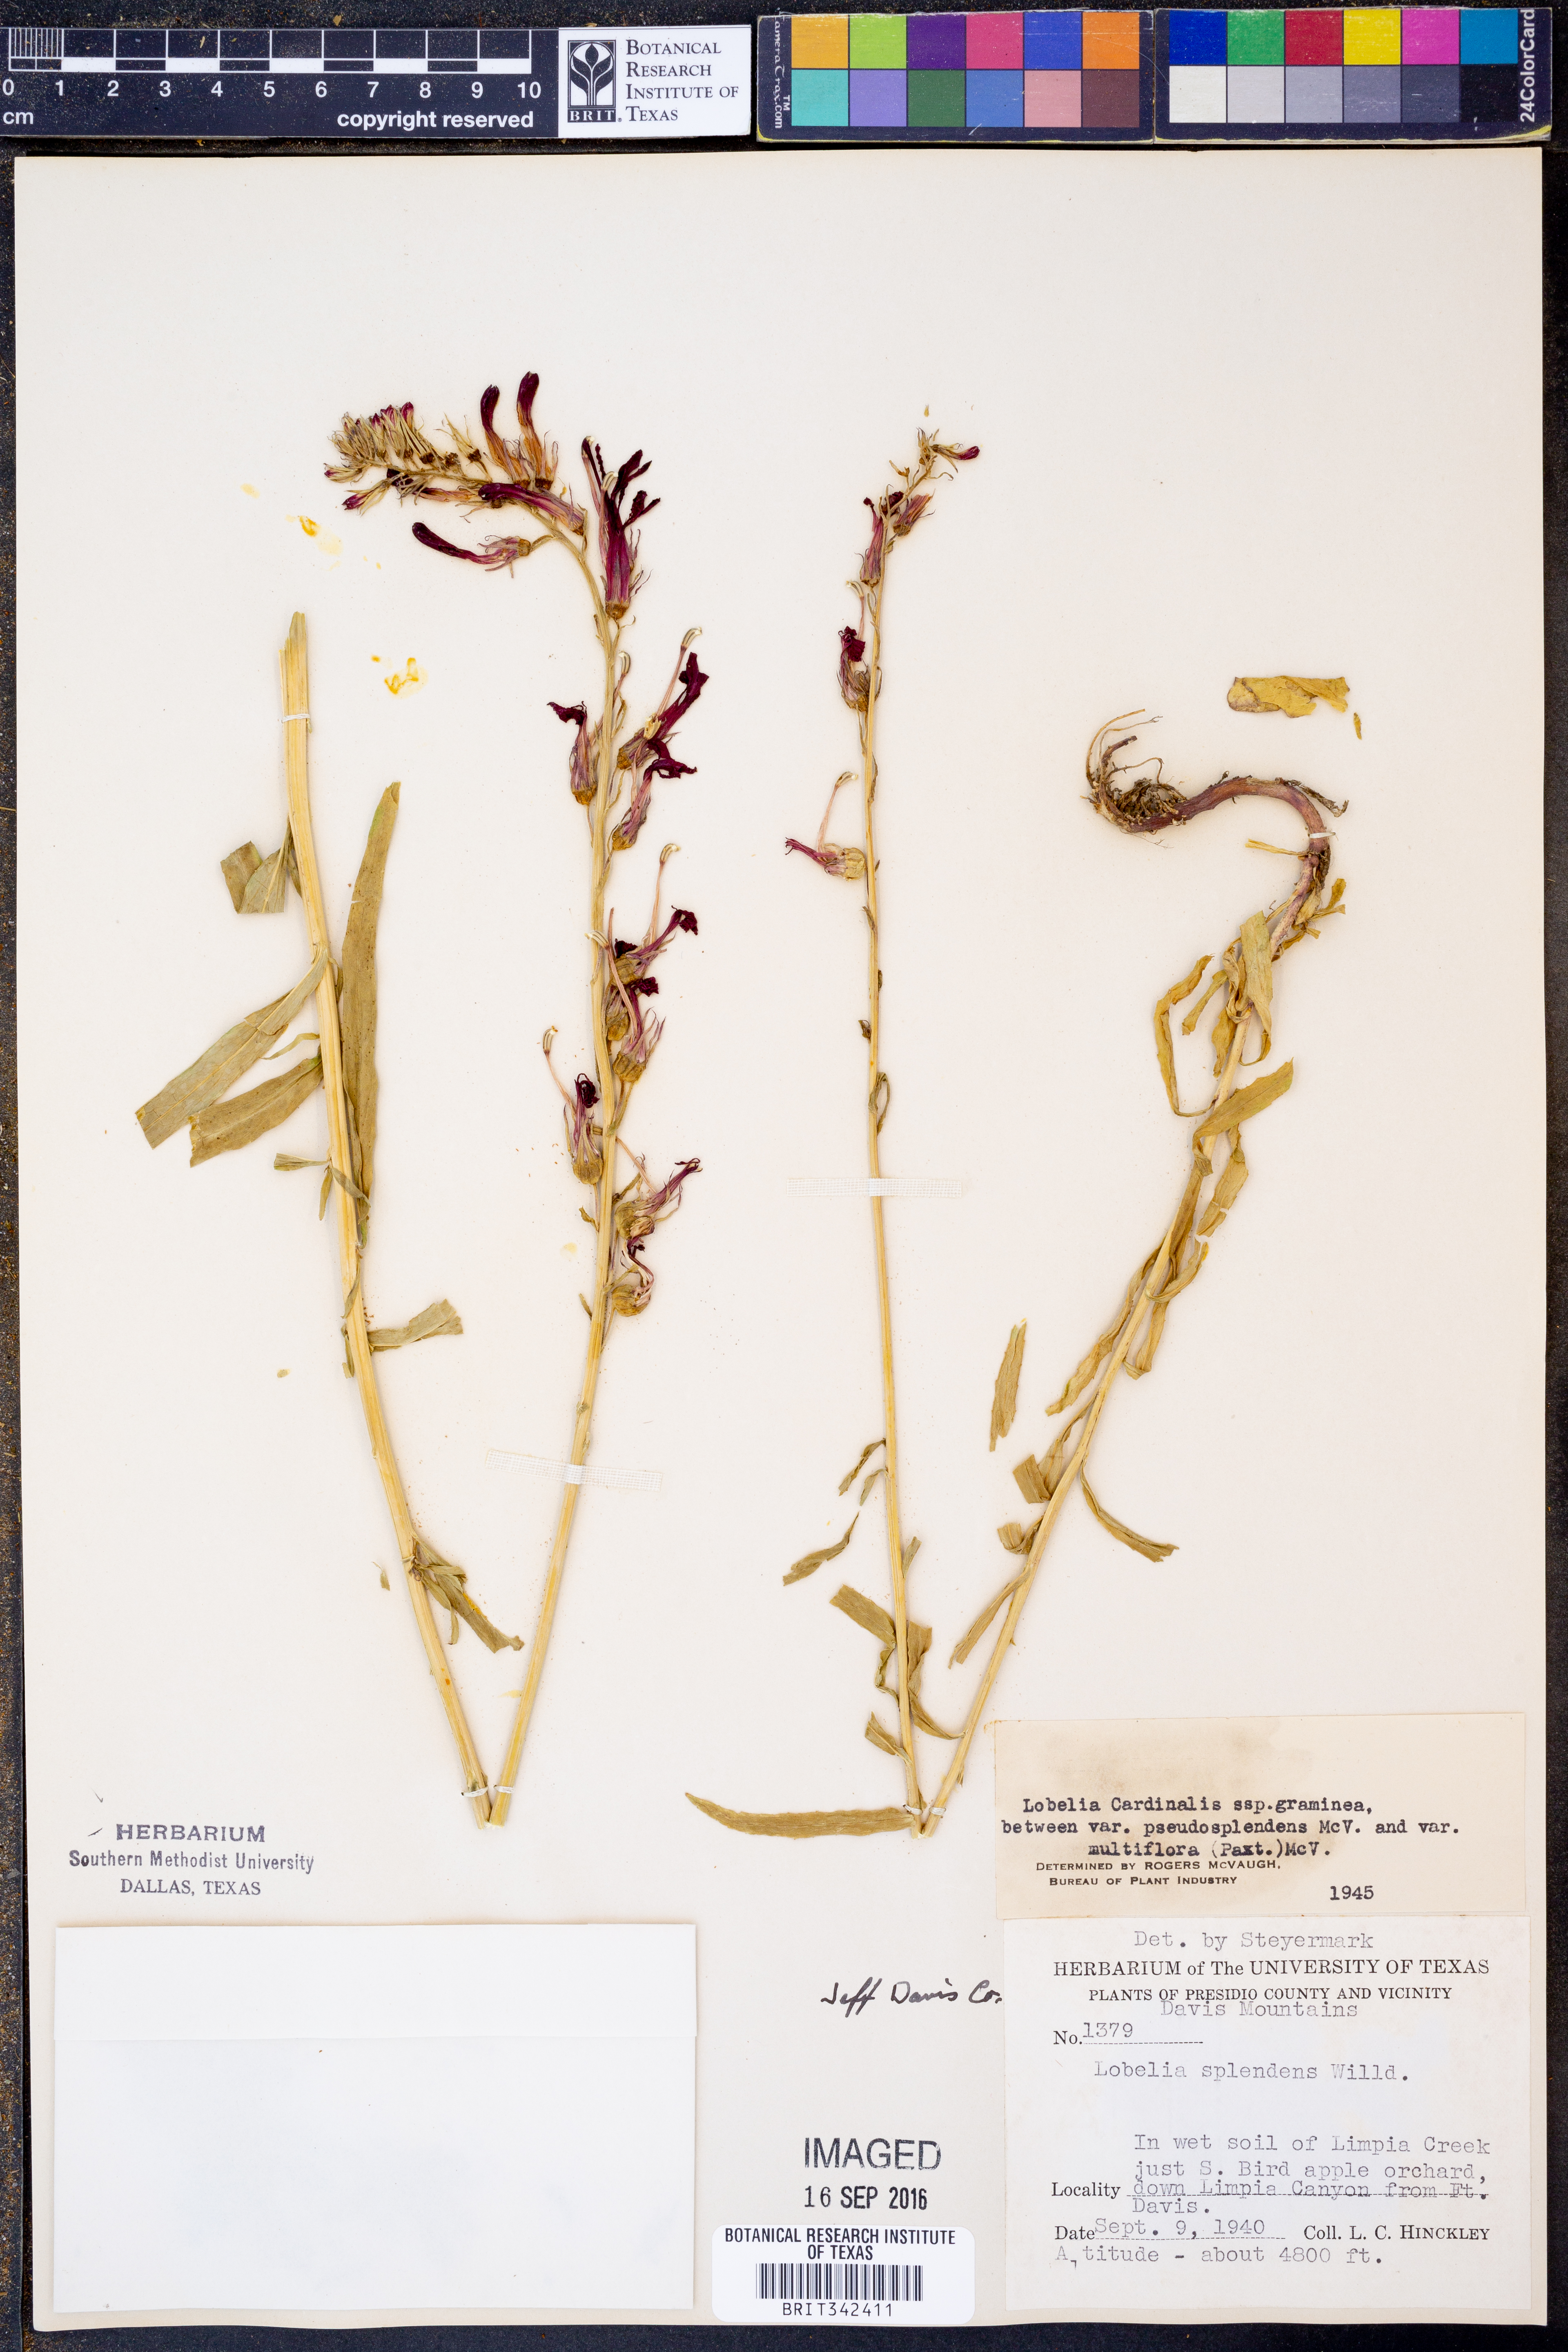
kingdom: Plantae
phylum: Tracheophyta
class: Magnoliopsida
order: Asterales
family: Campanulaceae
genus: Lobelia
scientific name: Lobelia cardinalis
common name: Cardinal flower
